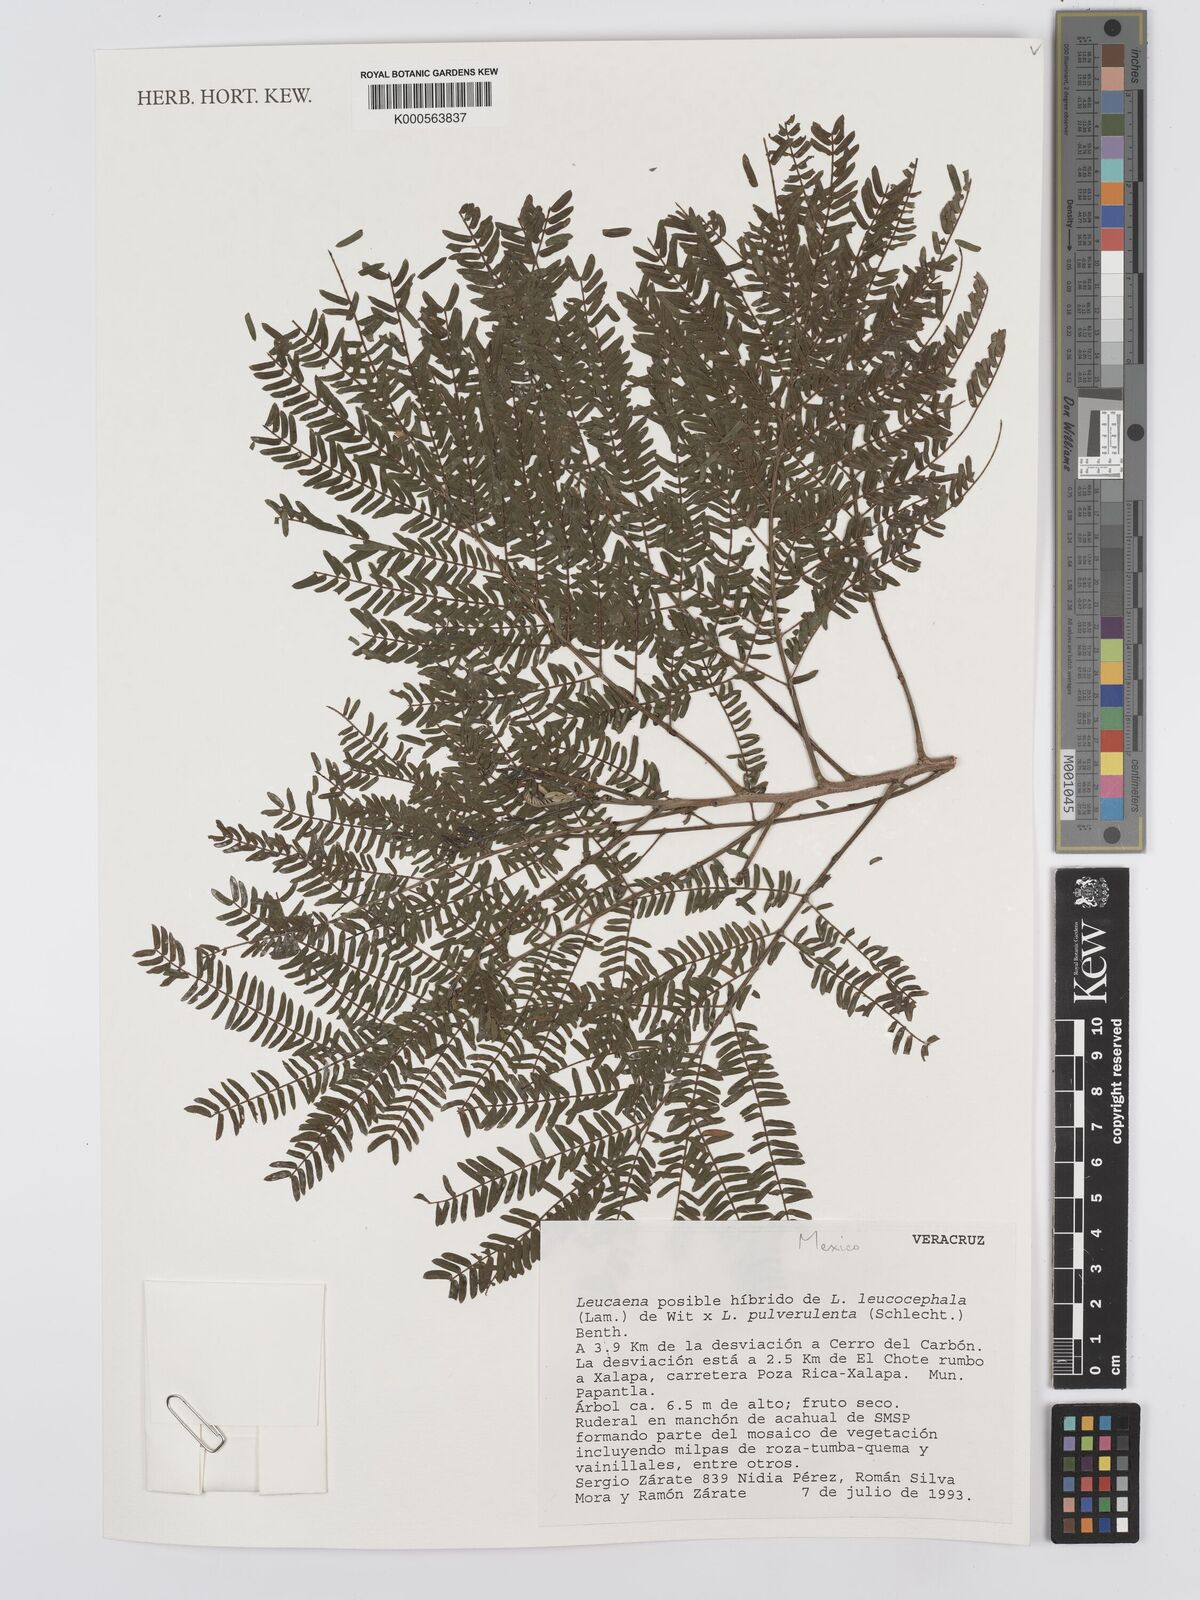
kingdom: Plantae
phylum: Tracheophyta
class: Magnoliopsida
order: Fabales
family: Fabaceae
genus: Leucaena
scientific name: Leucaena
